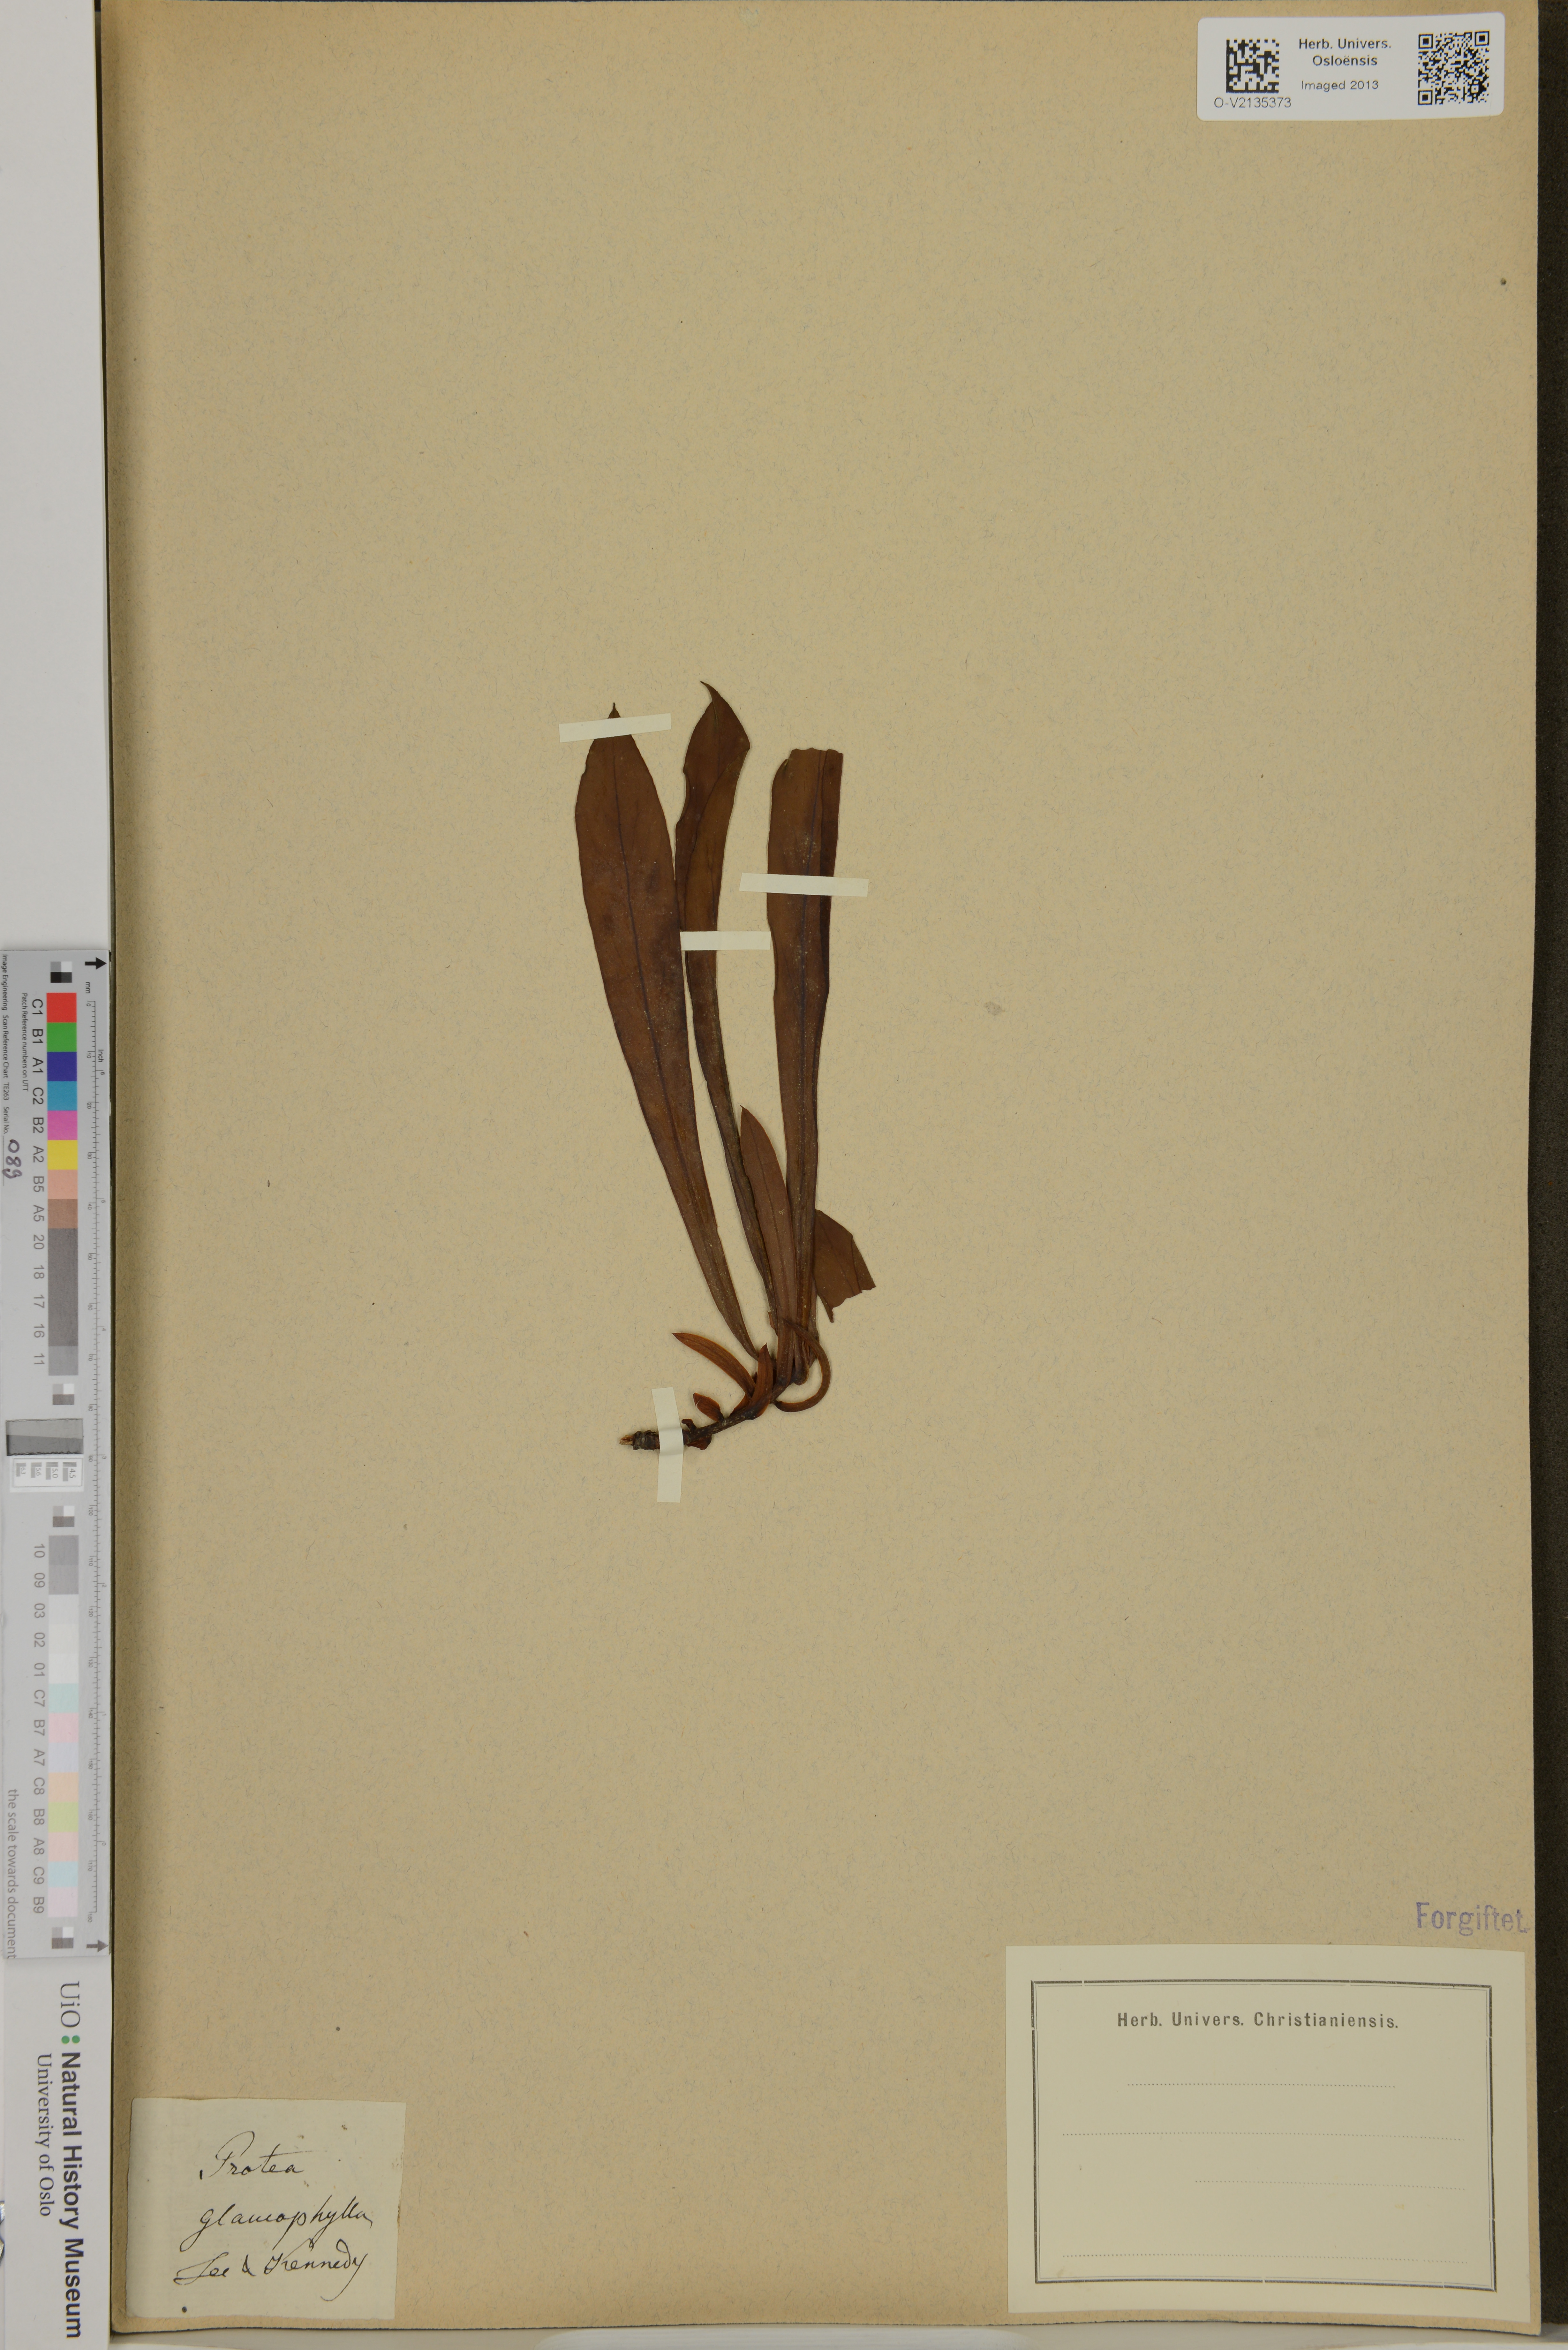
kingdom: Plantae
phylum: Tracheophyta
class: Magnoliopsida
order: Proteales
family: Proteaceae
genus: Protea
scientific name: Protea acaulos
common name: Common ground sugarbush
